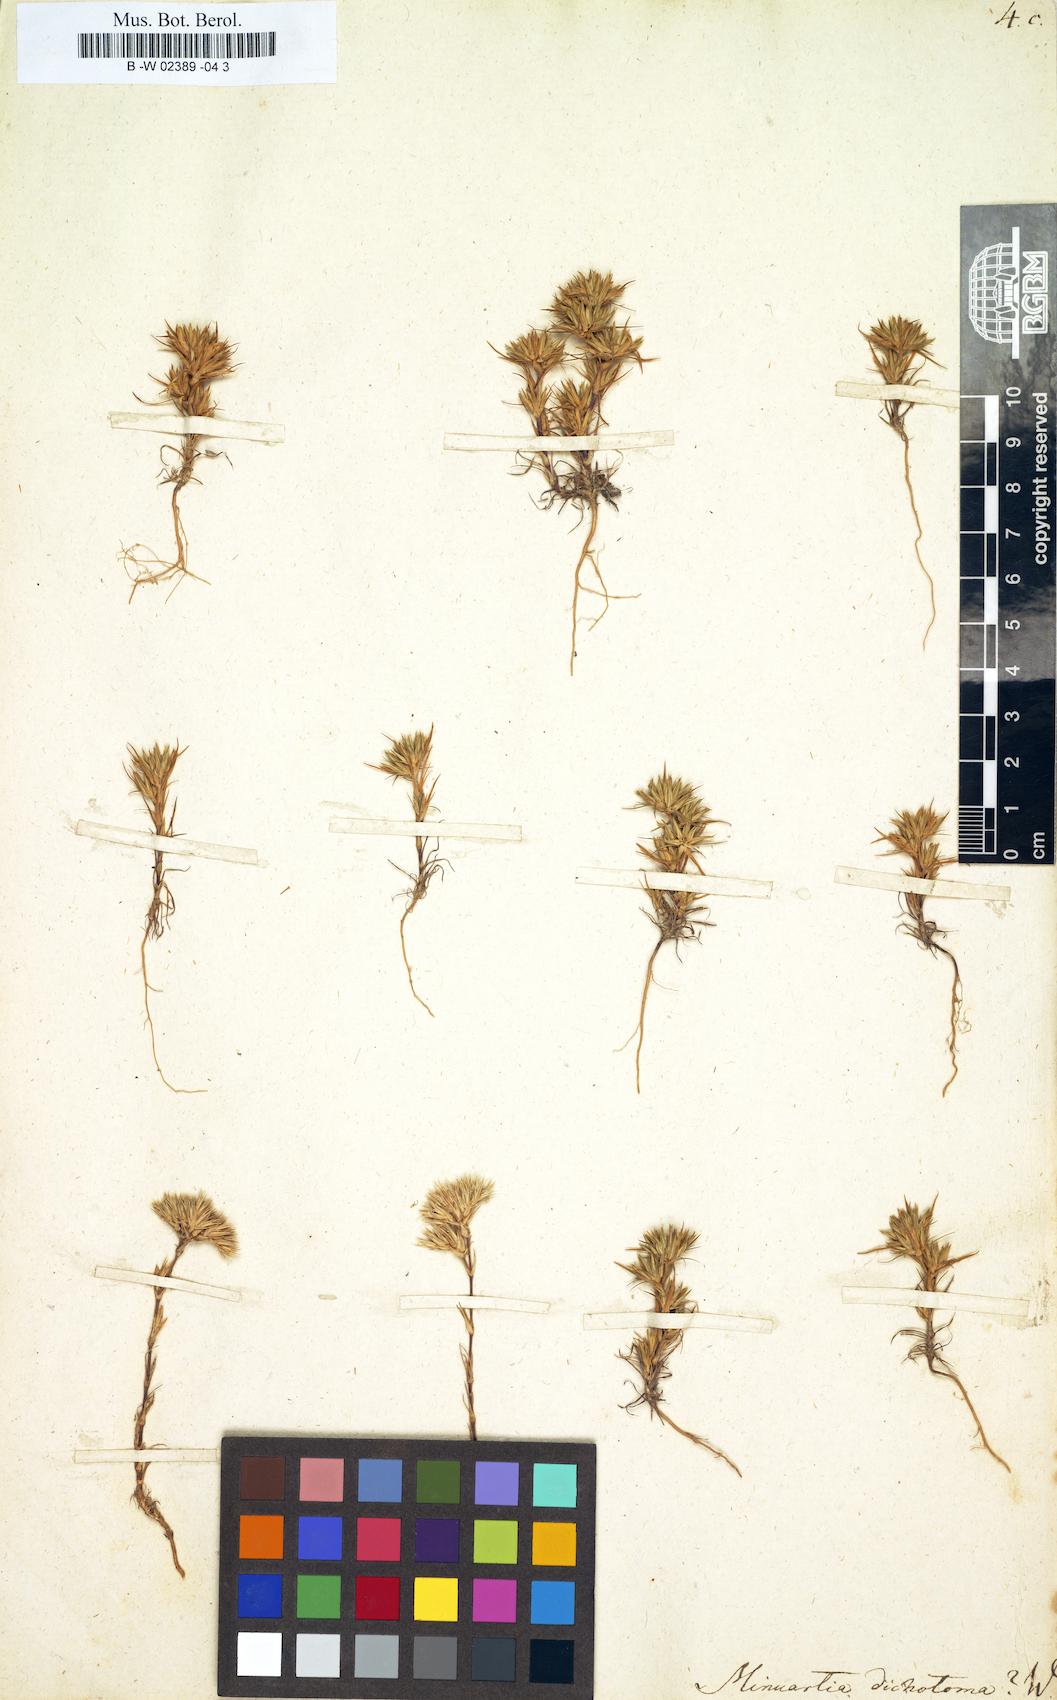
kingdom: Plantae
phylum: Tracheophyta
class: Magnoliopsida
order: Caryophyllales
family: Caryophyllaceae
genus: Minuartia
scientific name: Minuartia dichotoma
